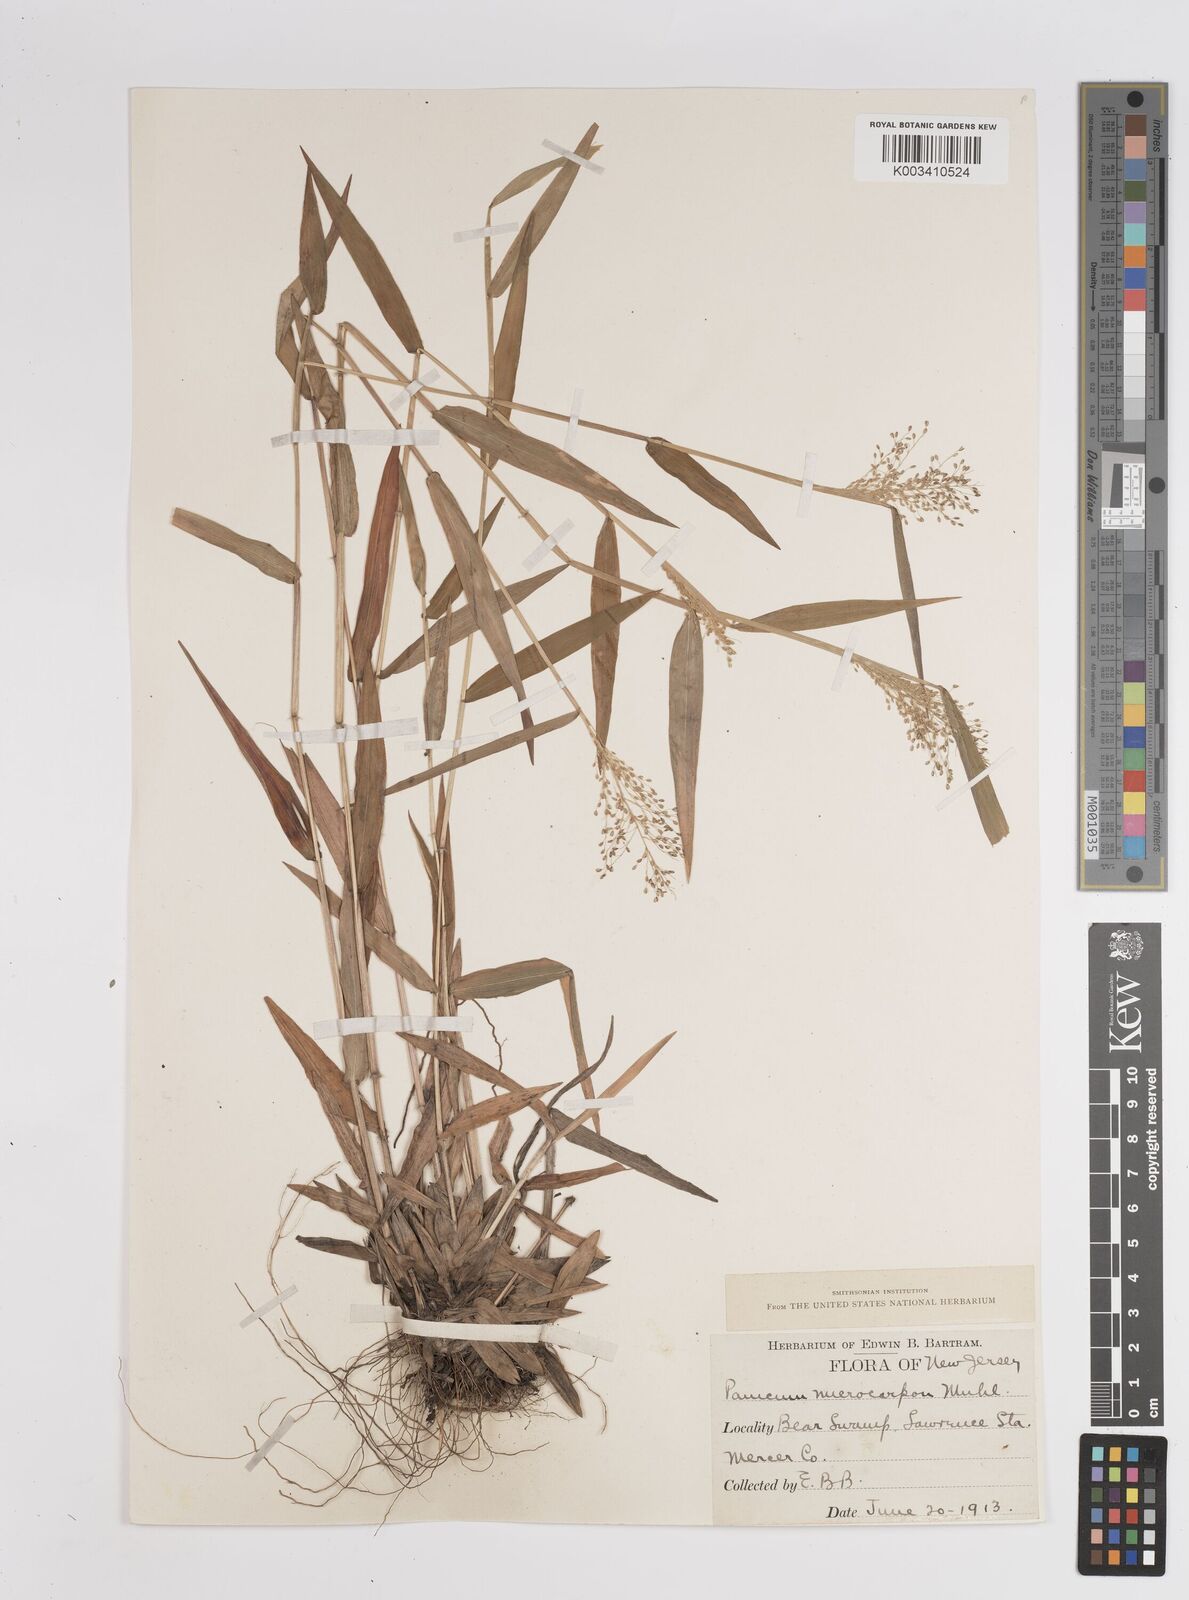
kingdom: Plantae
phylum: Tracheophyta
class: Liliopsida
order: Poales
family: Poaceae
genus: Dichanthelium
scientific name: Dichanthelium polyanthes
